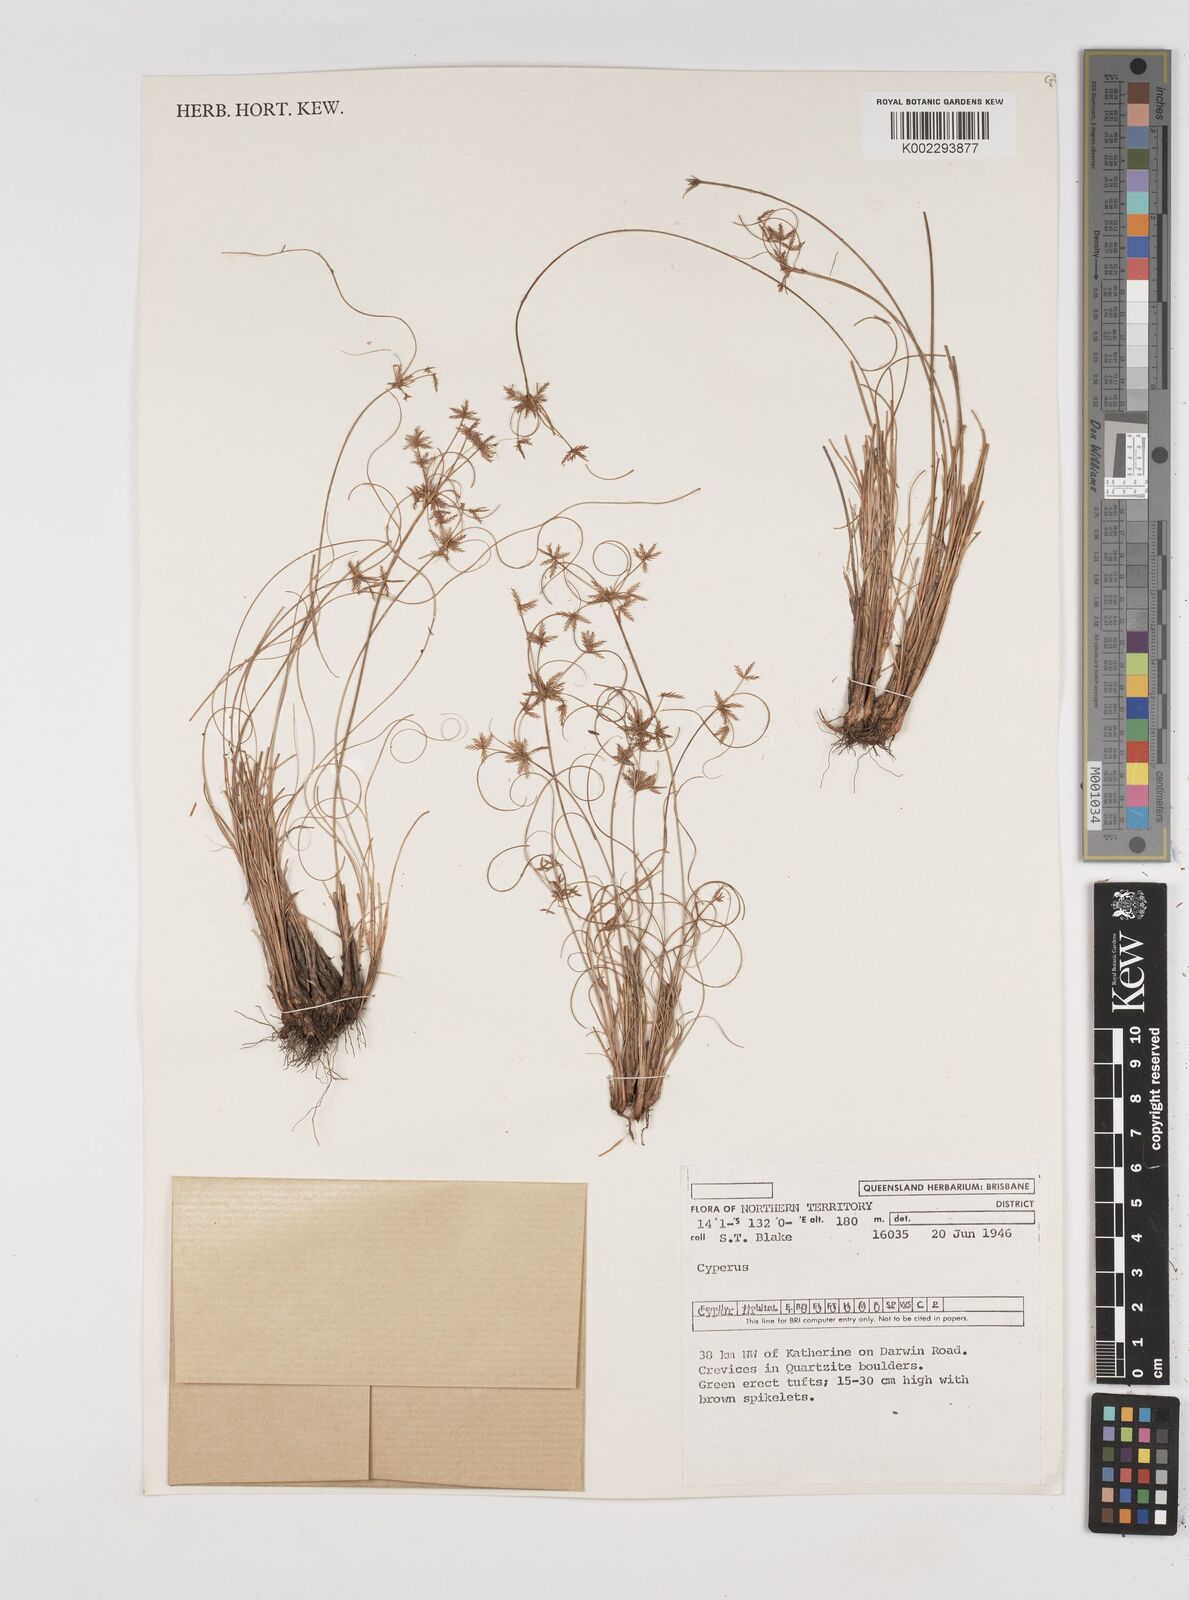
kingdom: Plantae
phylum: Tracheophyta
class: Liliopsida
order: Poales
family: Cyperaceae
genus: Cyperus
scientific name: Cyperus
